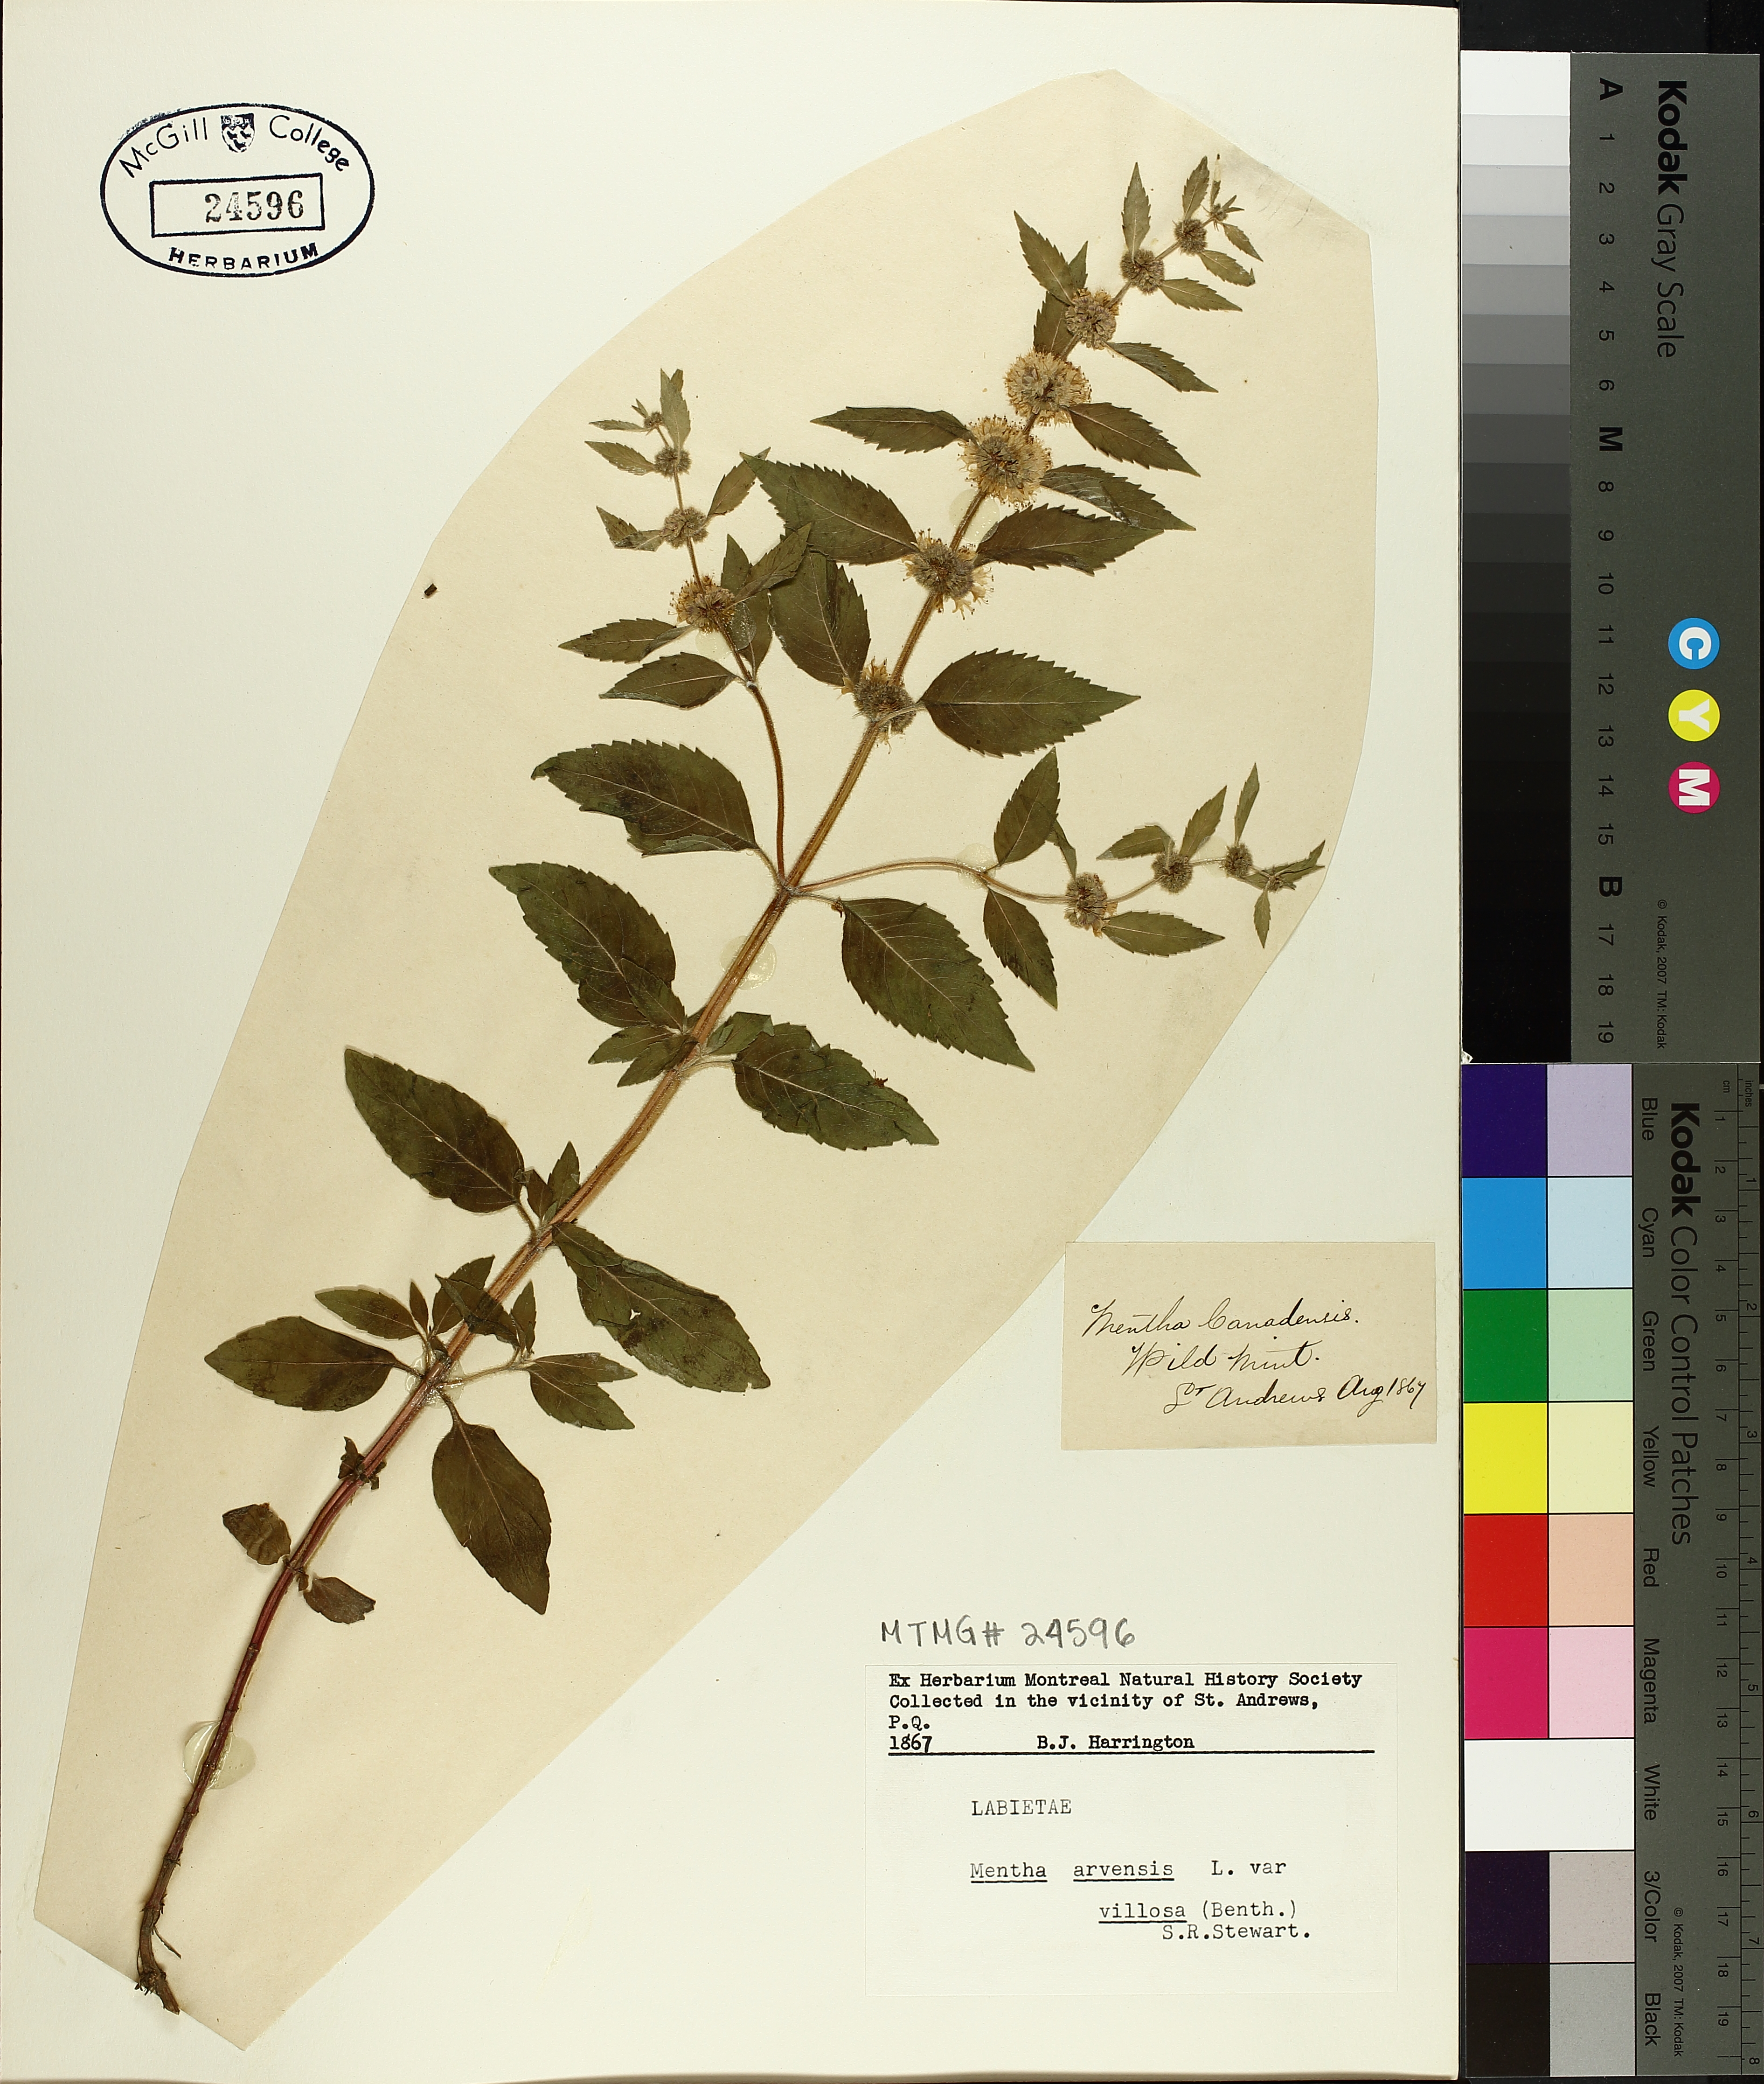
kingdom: Plantae
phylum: Tracheophyta
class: Magnoliopsida
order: Lamiales
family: Lamiaceae
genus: Mentha
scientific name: Mentha arvensis
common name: Corn mint
